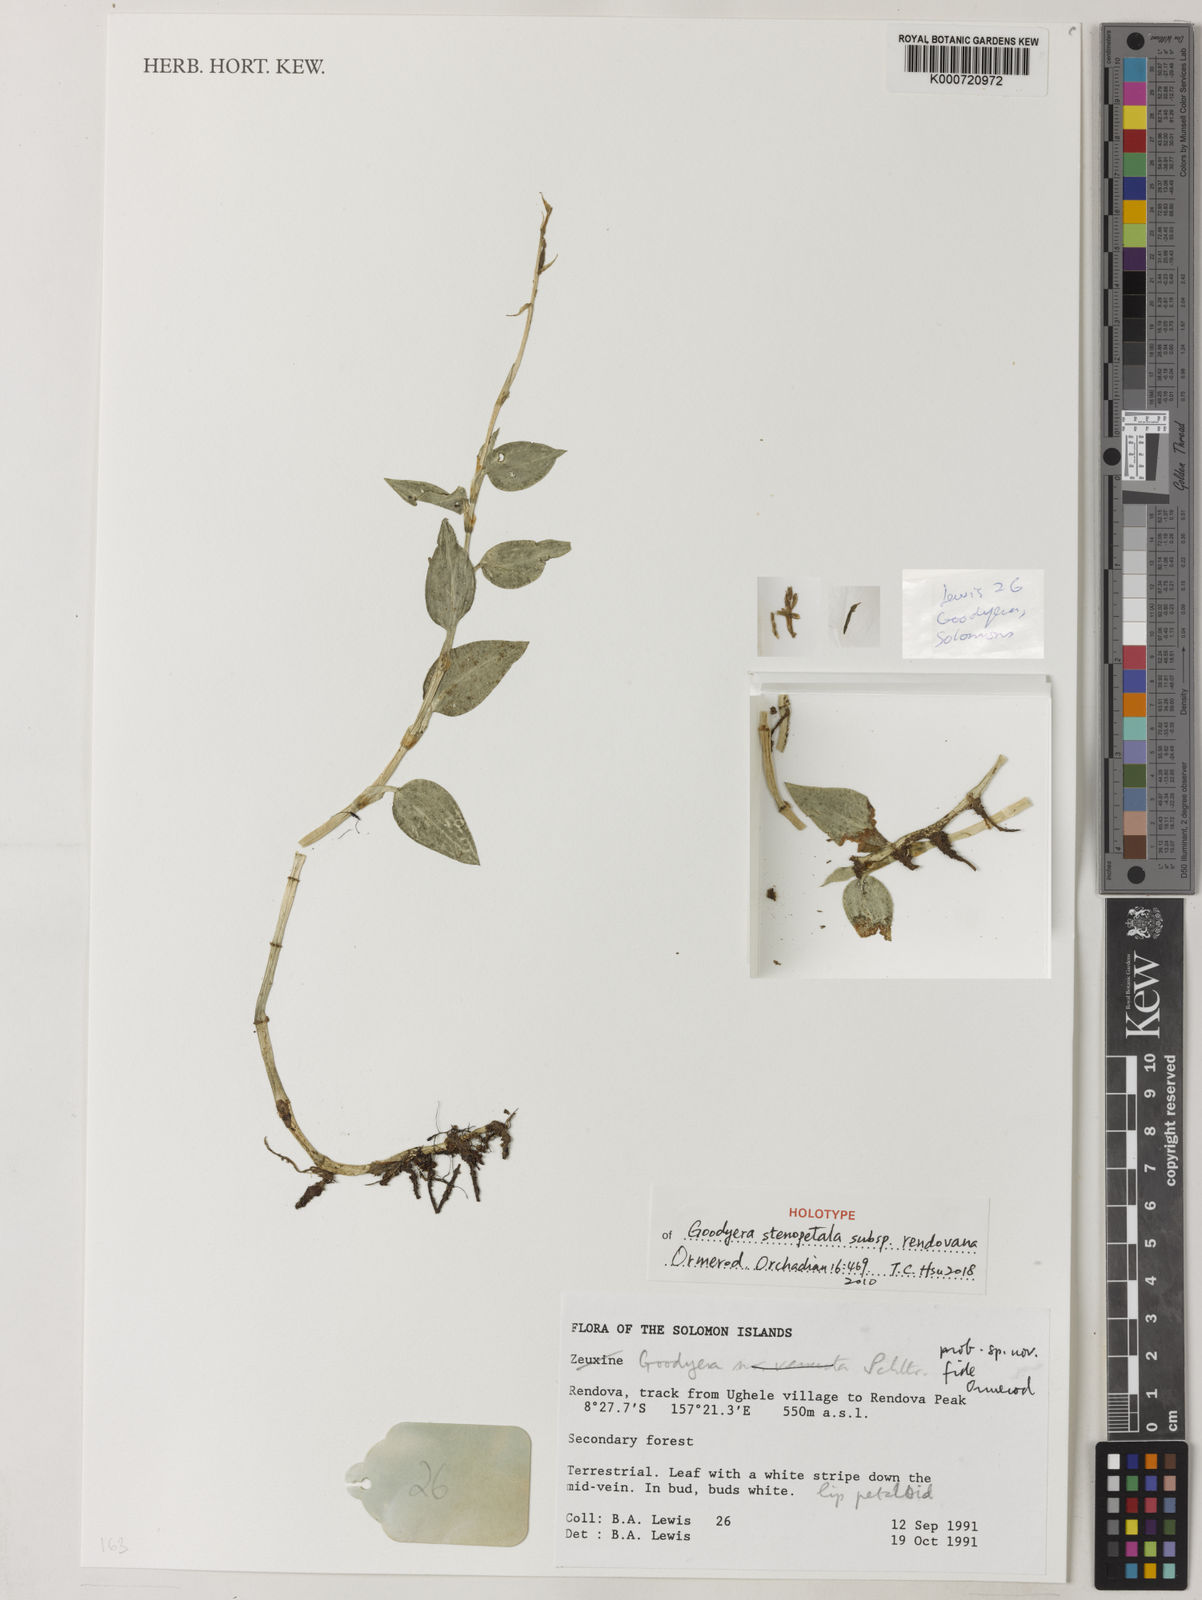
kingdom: Plantae
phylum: Tracheophyta
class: Liliopsida
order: Asparagales
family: Orchidaceae
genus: Goodyera
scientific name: Goodyera stenopetala
